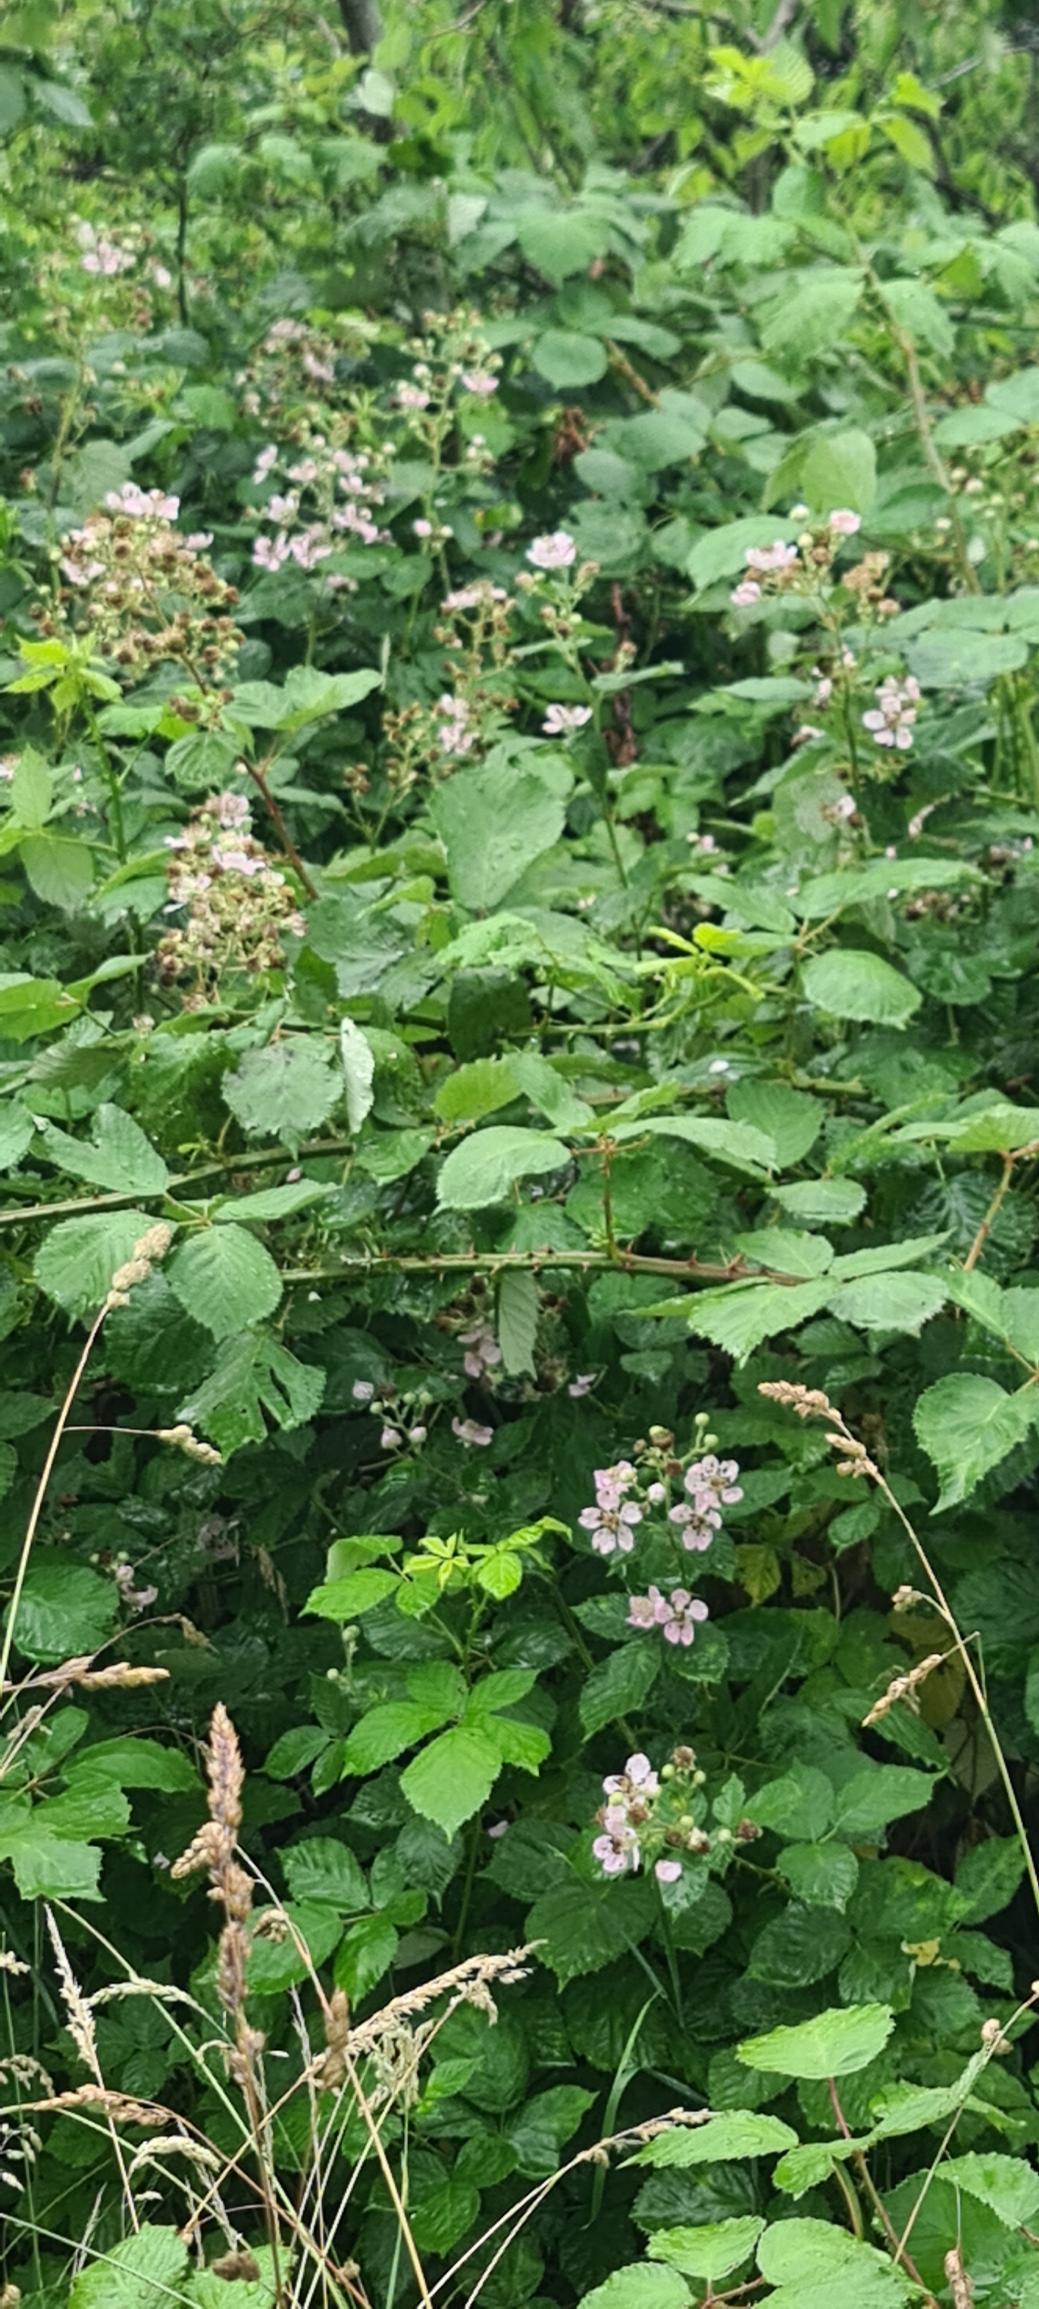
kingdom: Plantae
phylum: Tracheophyta
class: Magnoliopsida
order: Rosales
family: Rosaceae
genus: Rubus
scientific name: Rubus armeniacus
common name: Armensk brombær
